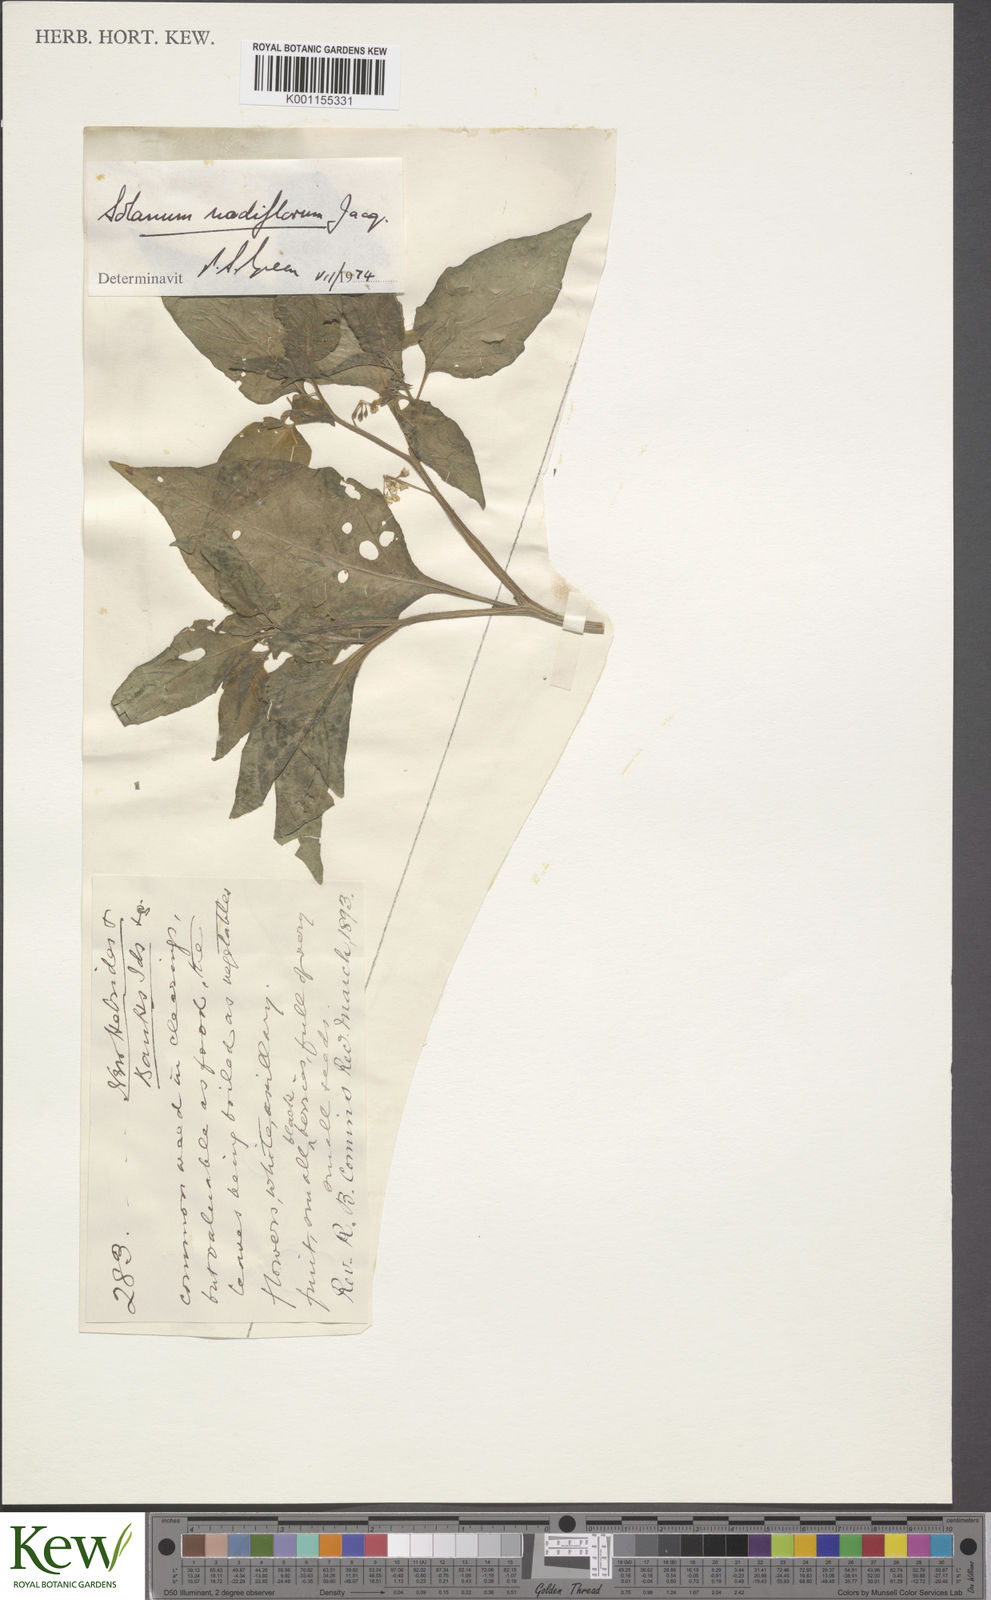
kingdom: Plantae
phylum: Tracheophyta
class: Magnoliopsida
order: Solanales
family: Solanaceae
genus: Solanum
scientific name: Solanum americanum
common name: American black nightshade
